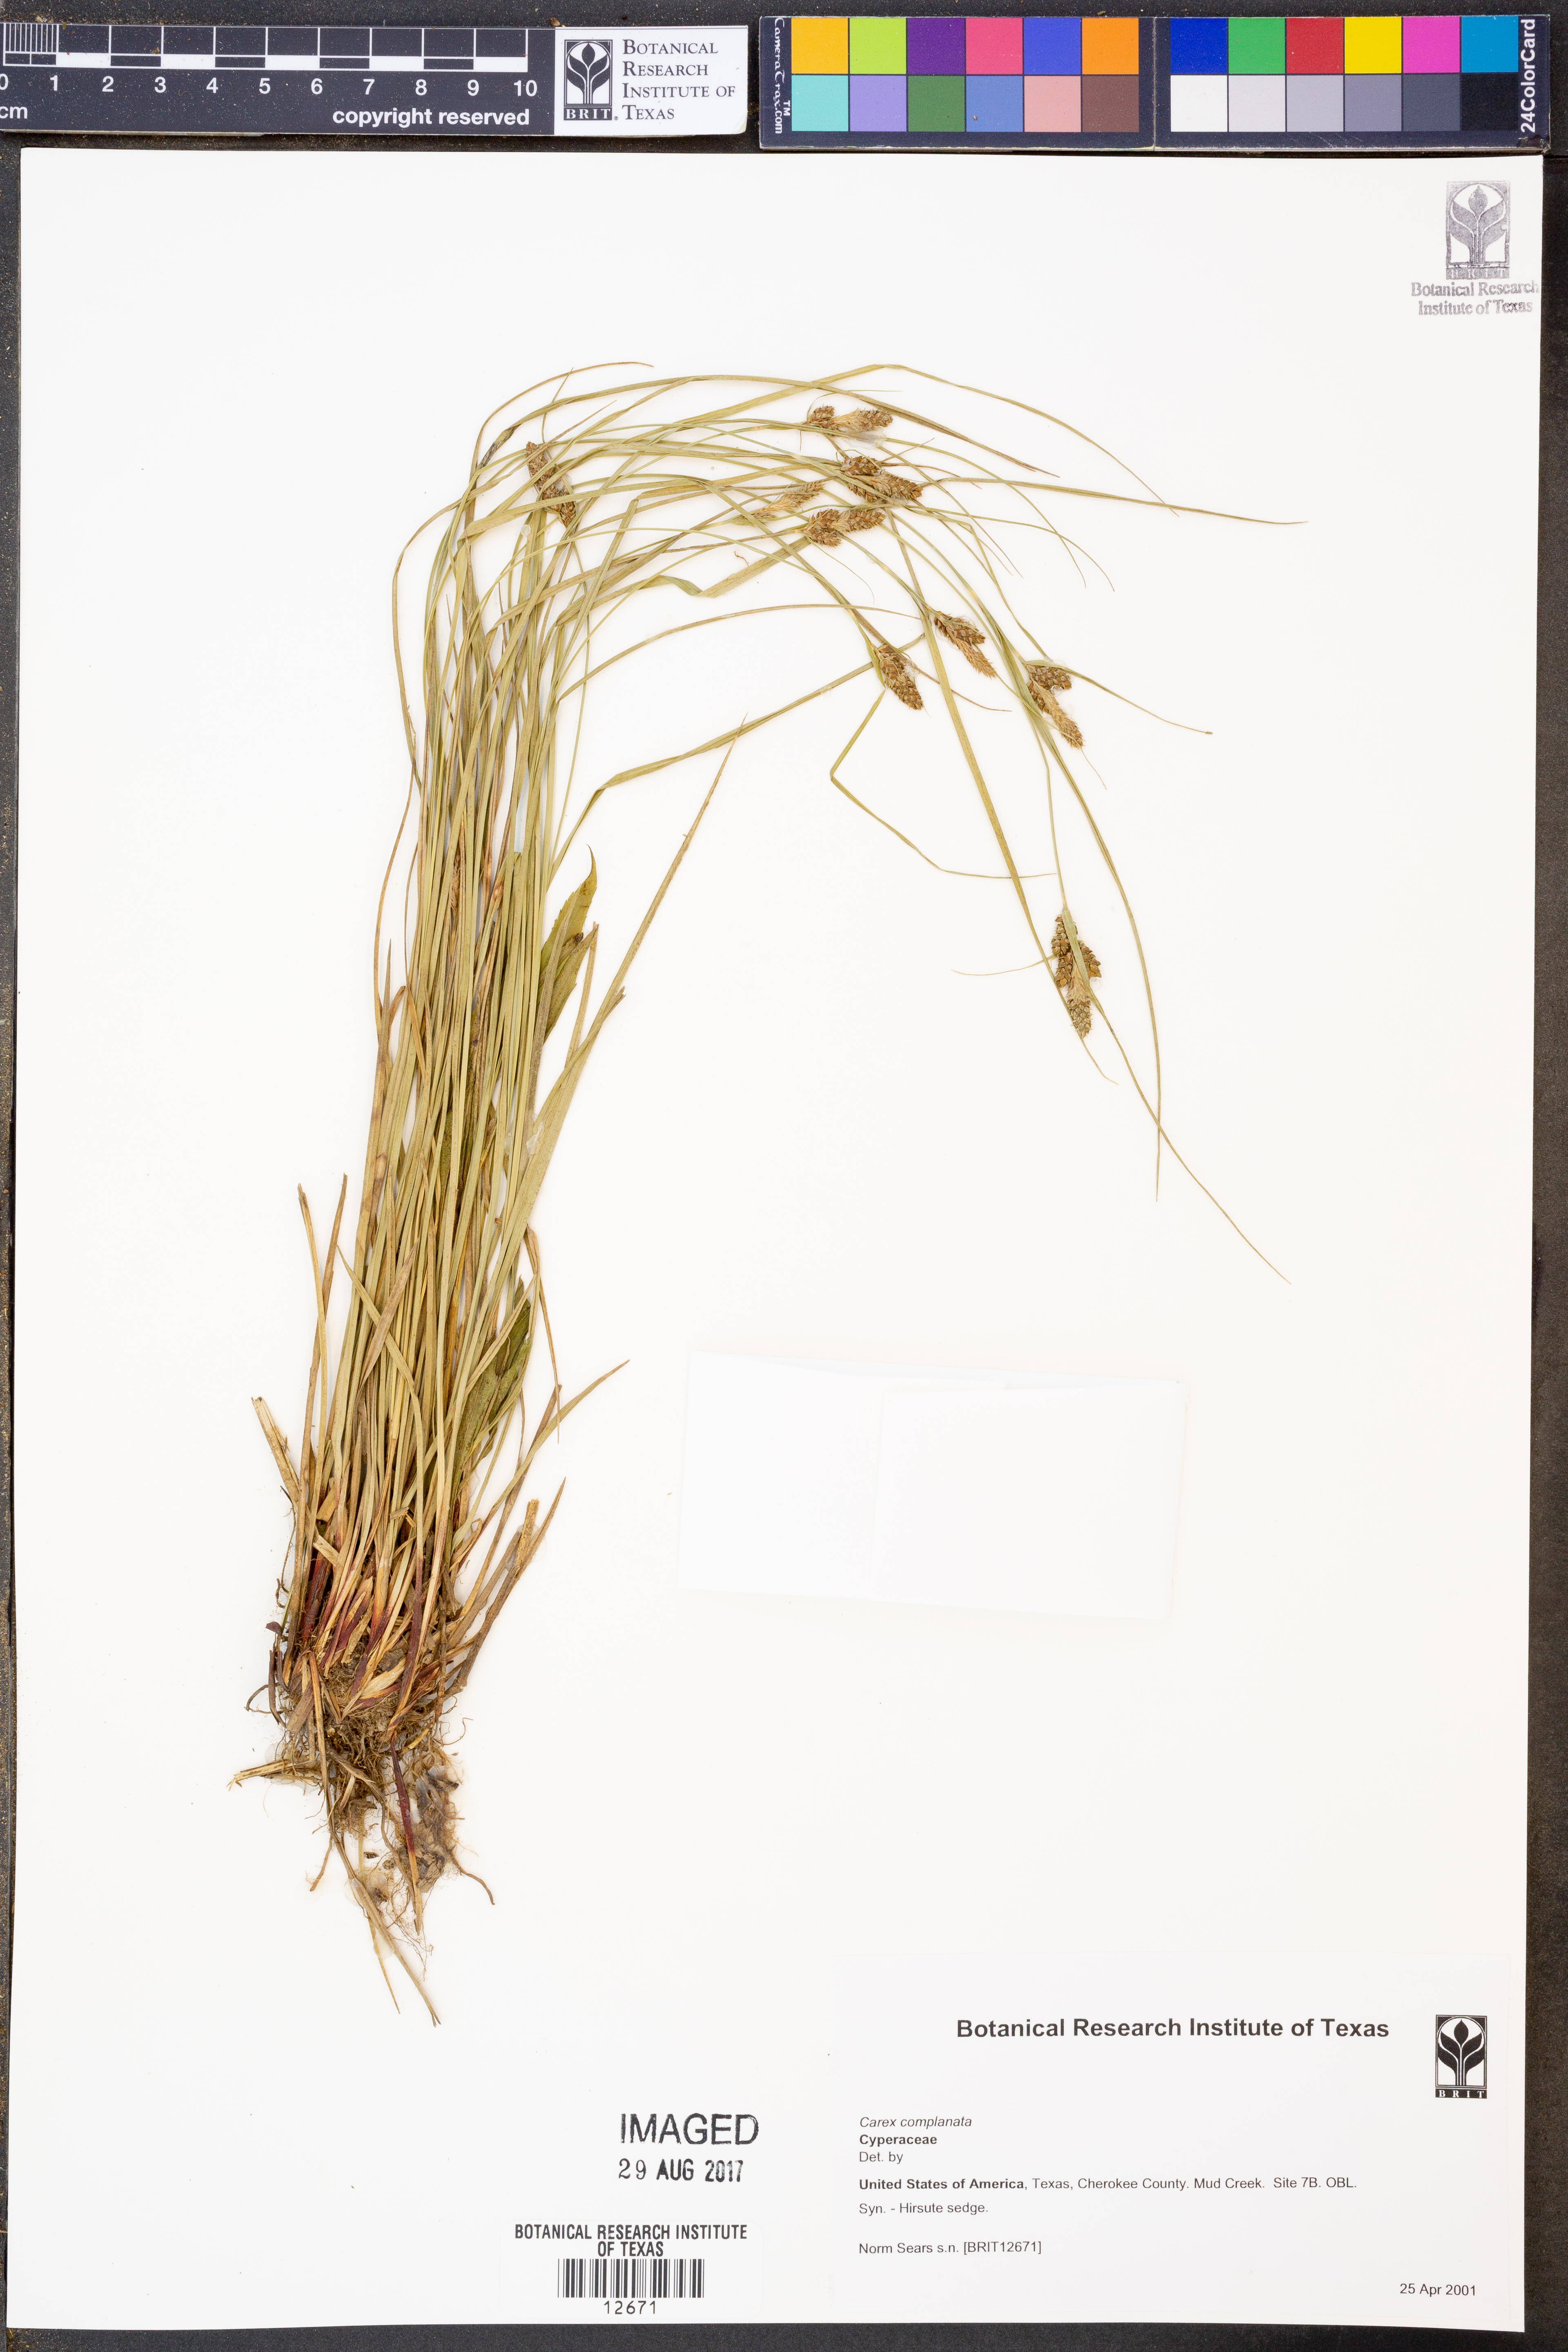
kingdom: Plantae
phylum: Tracheophyta
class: Liliopsida
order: Poales
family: Cyperaceae
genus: Carex
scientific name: Carex complanata
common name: Hirsute sedge
